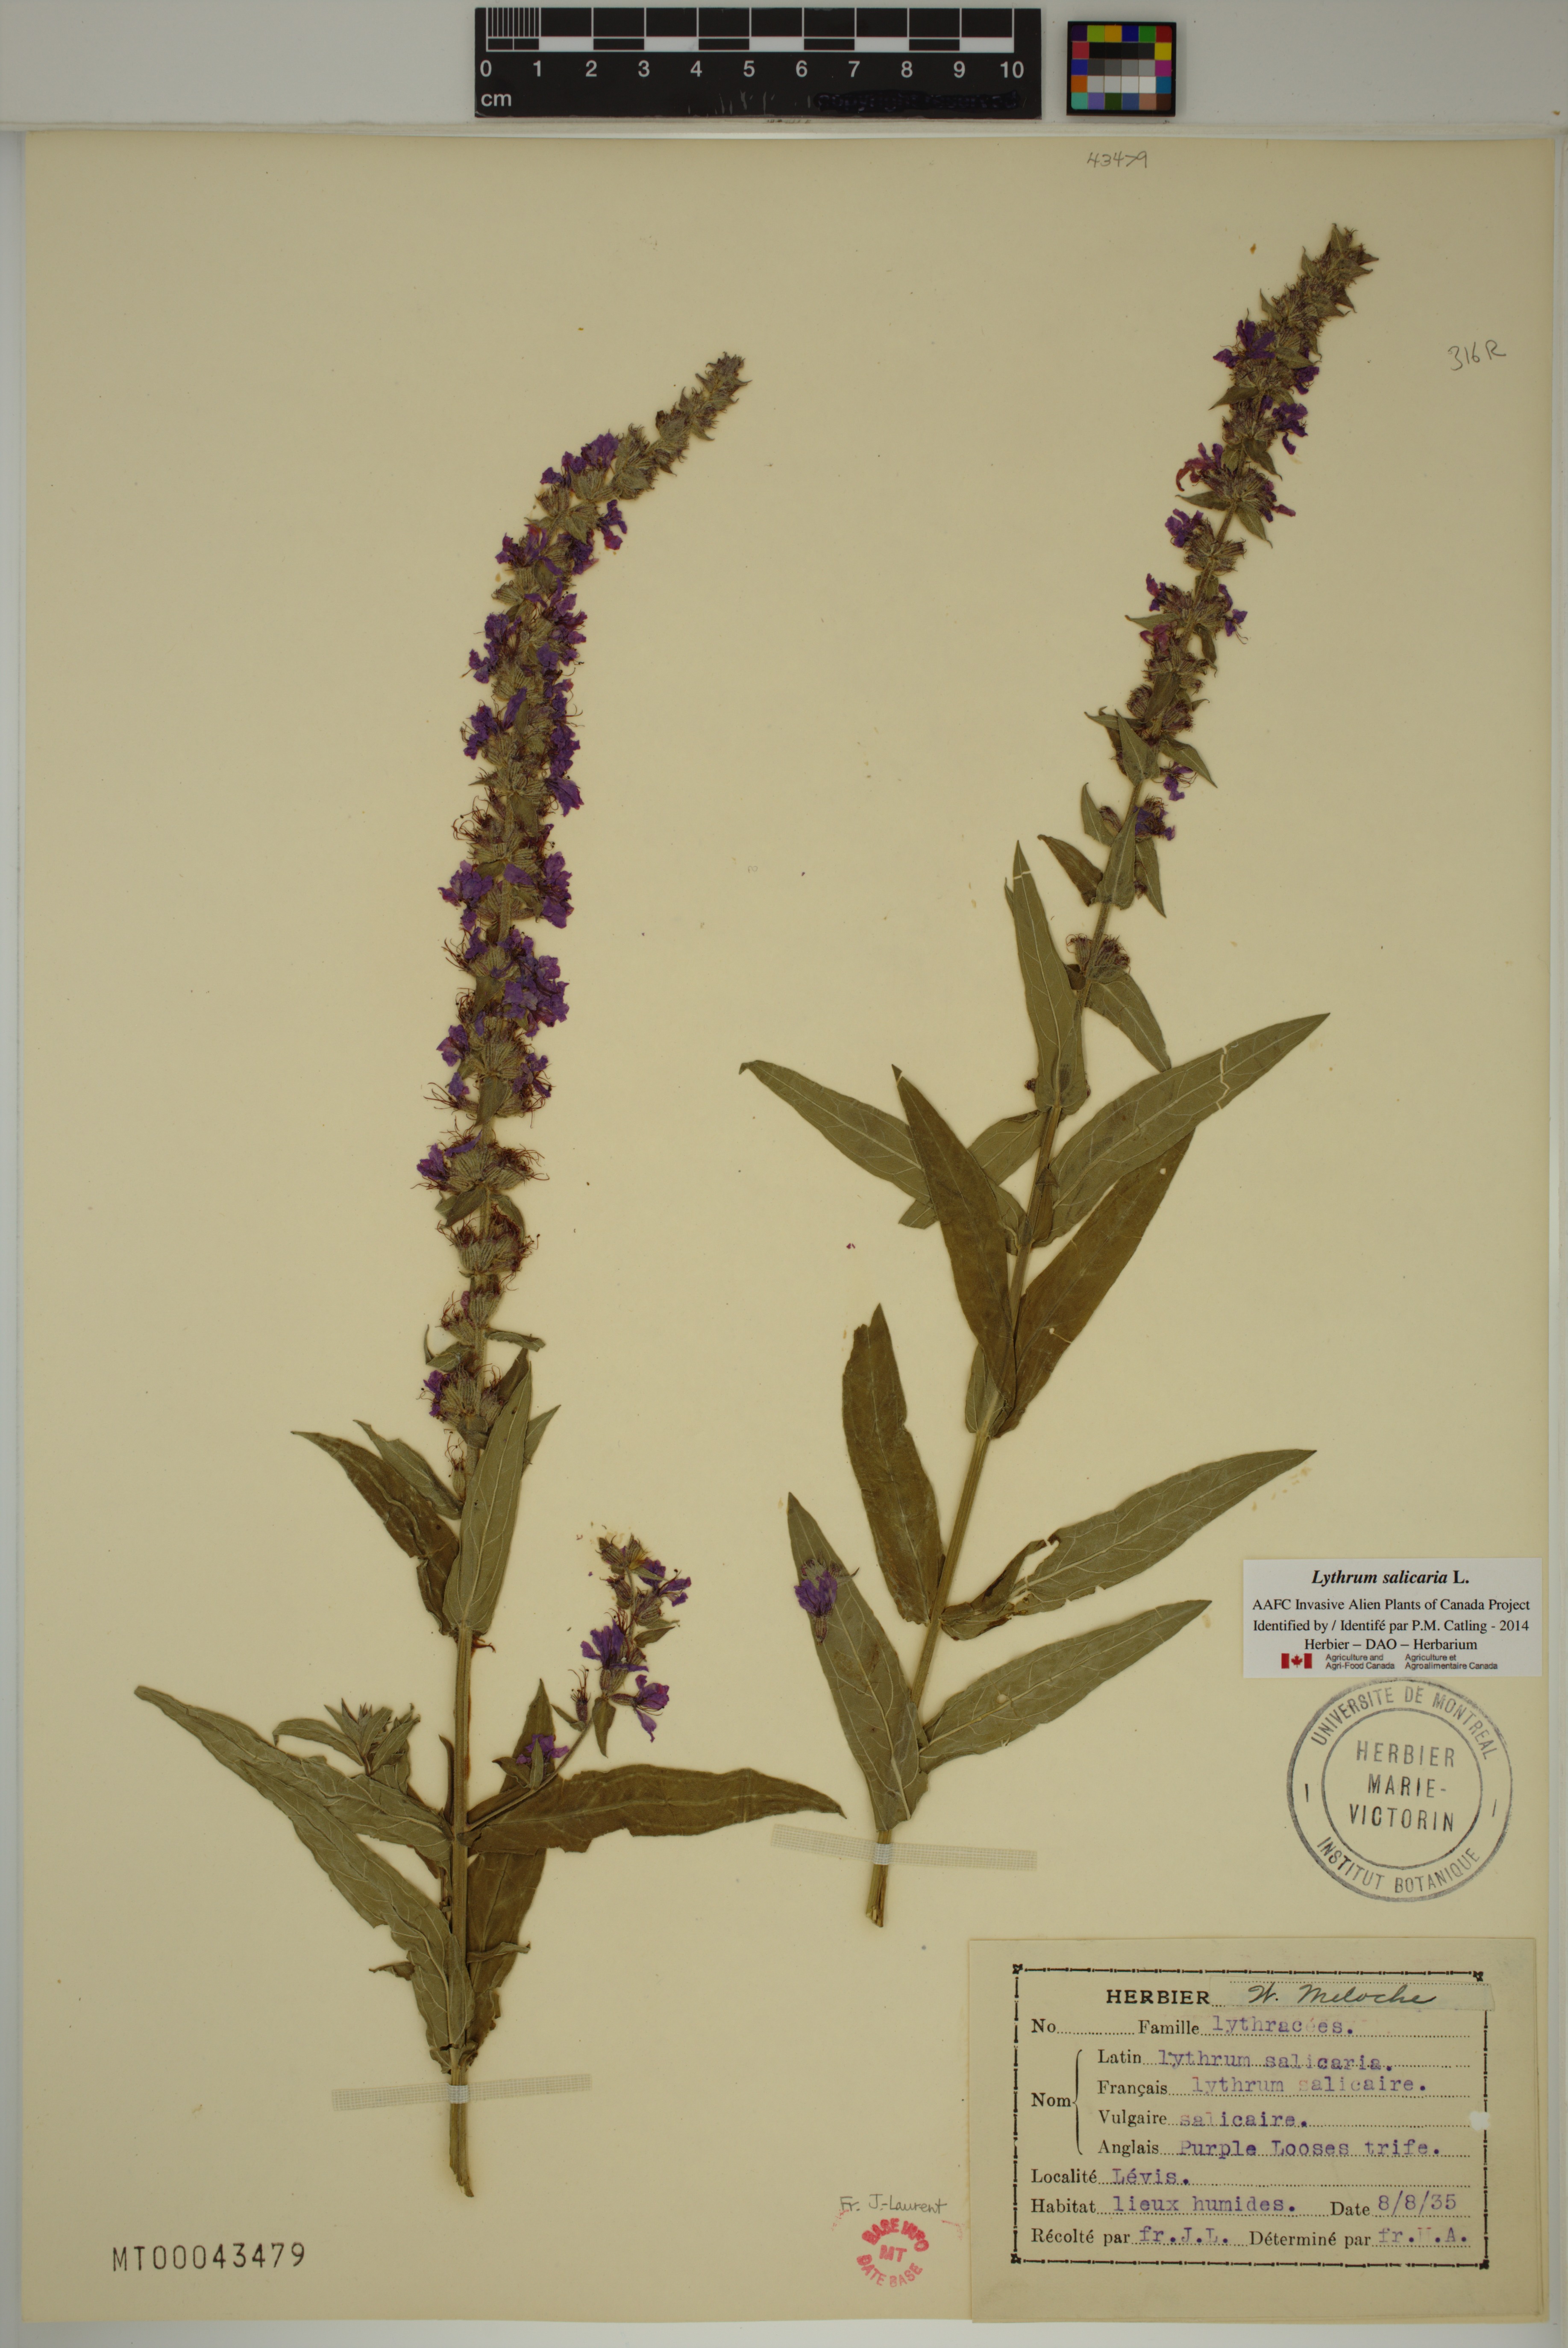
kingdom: Plantae
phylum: Tracheophyta
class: Magnoliopsida
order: Myrtales
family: Lythraceae
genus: Lythrum
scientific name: Lythrum salicaria
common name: Purple loosestrife
